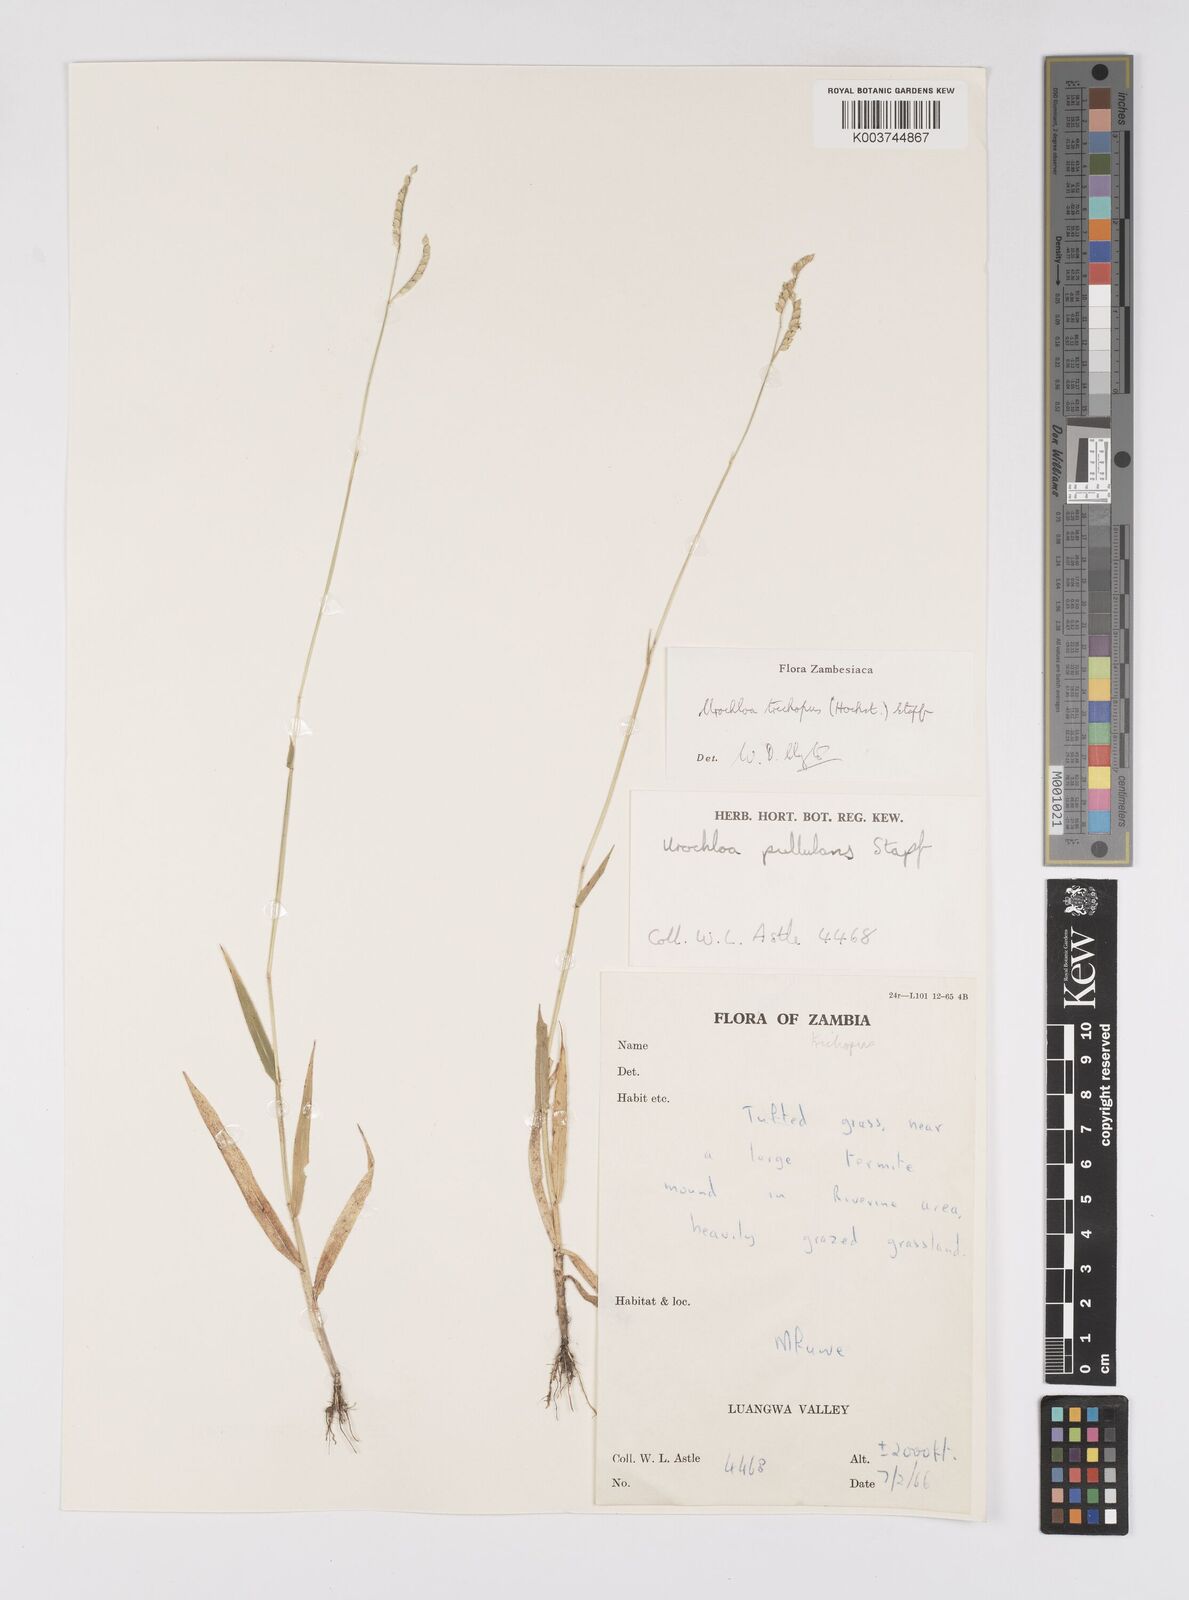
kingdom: Plantae
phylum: Tracheophyta
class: Liliopsida
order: Poales
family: Poaceae
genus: Urochloa
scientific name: Urochloa trichopus
